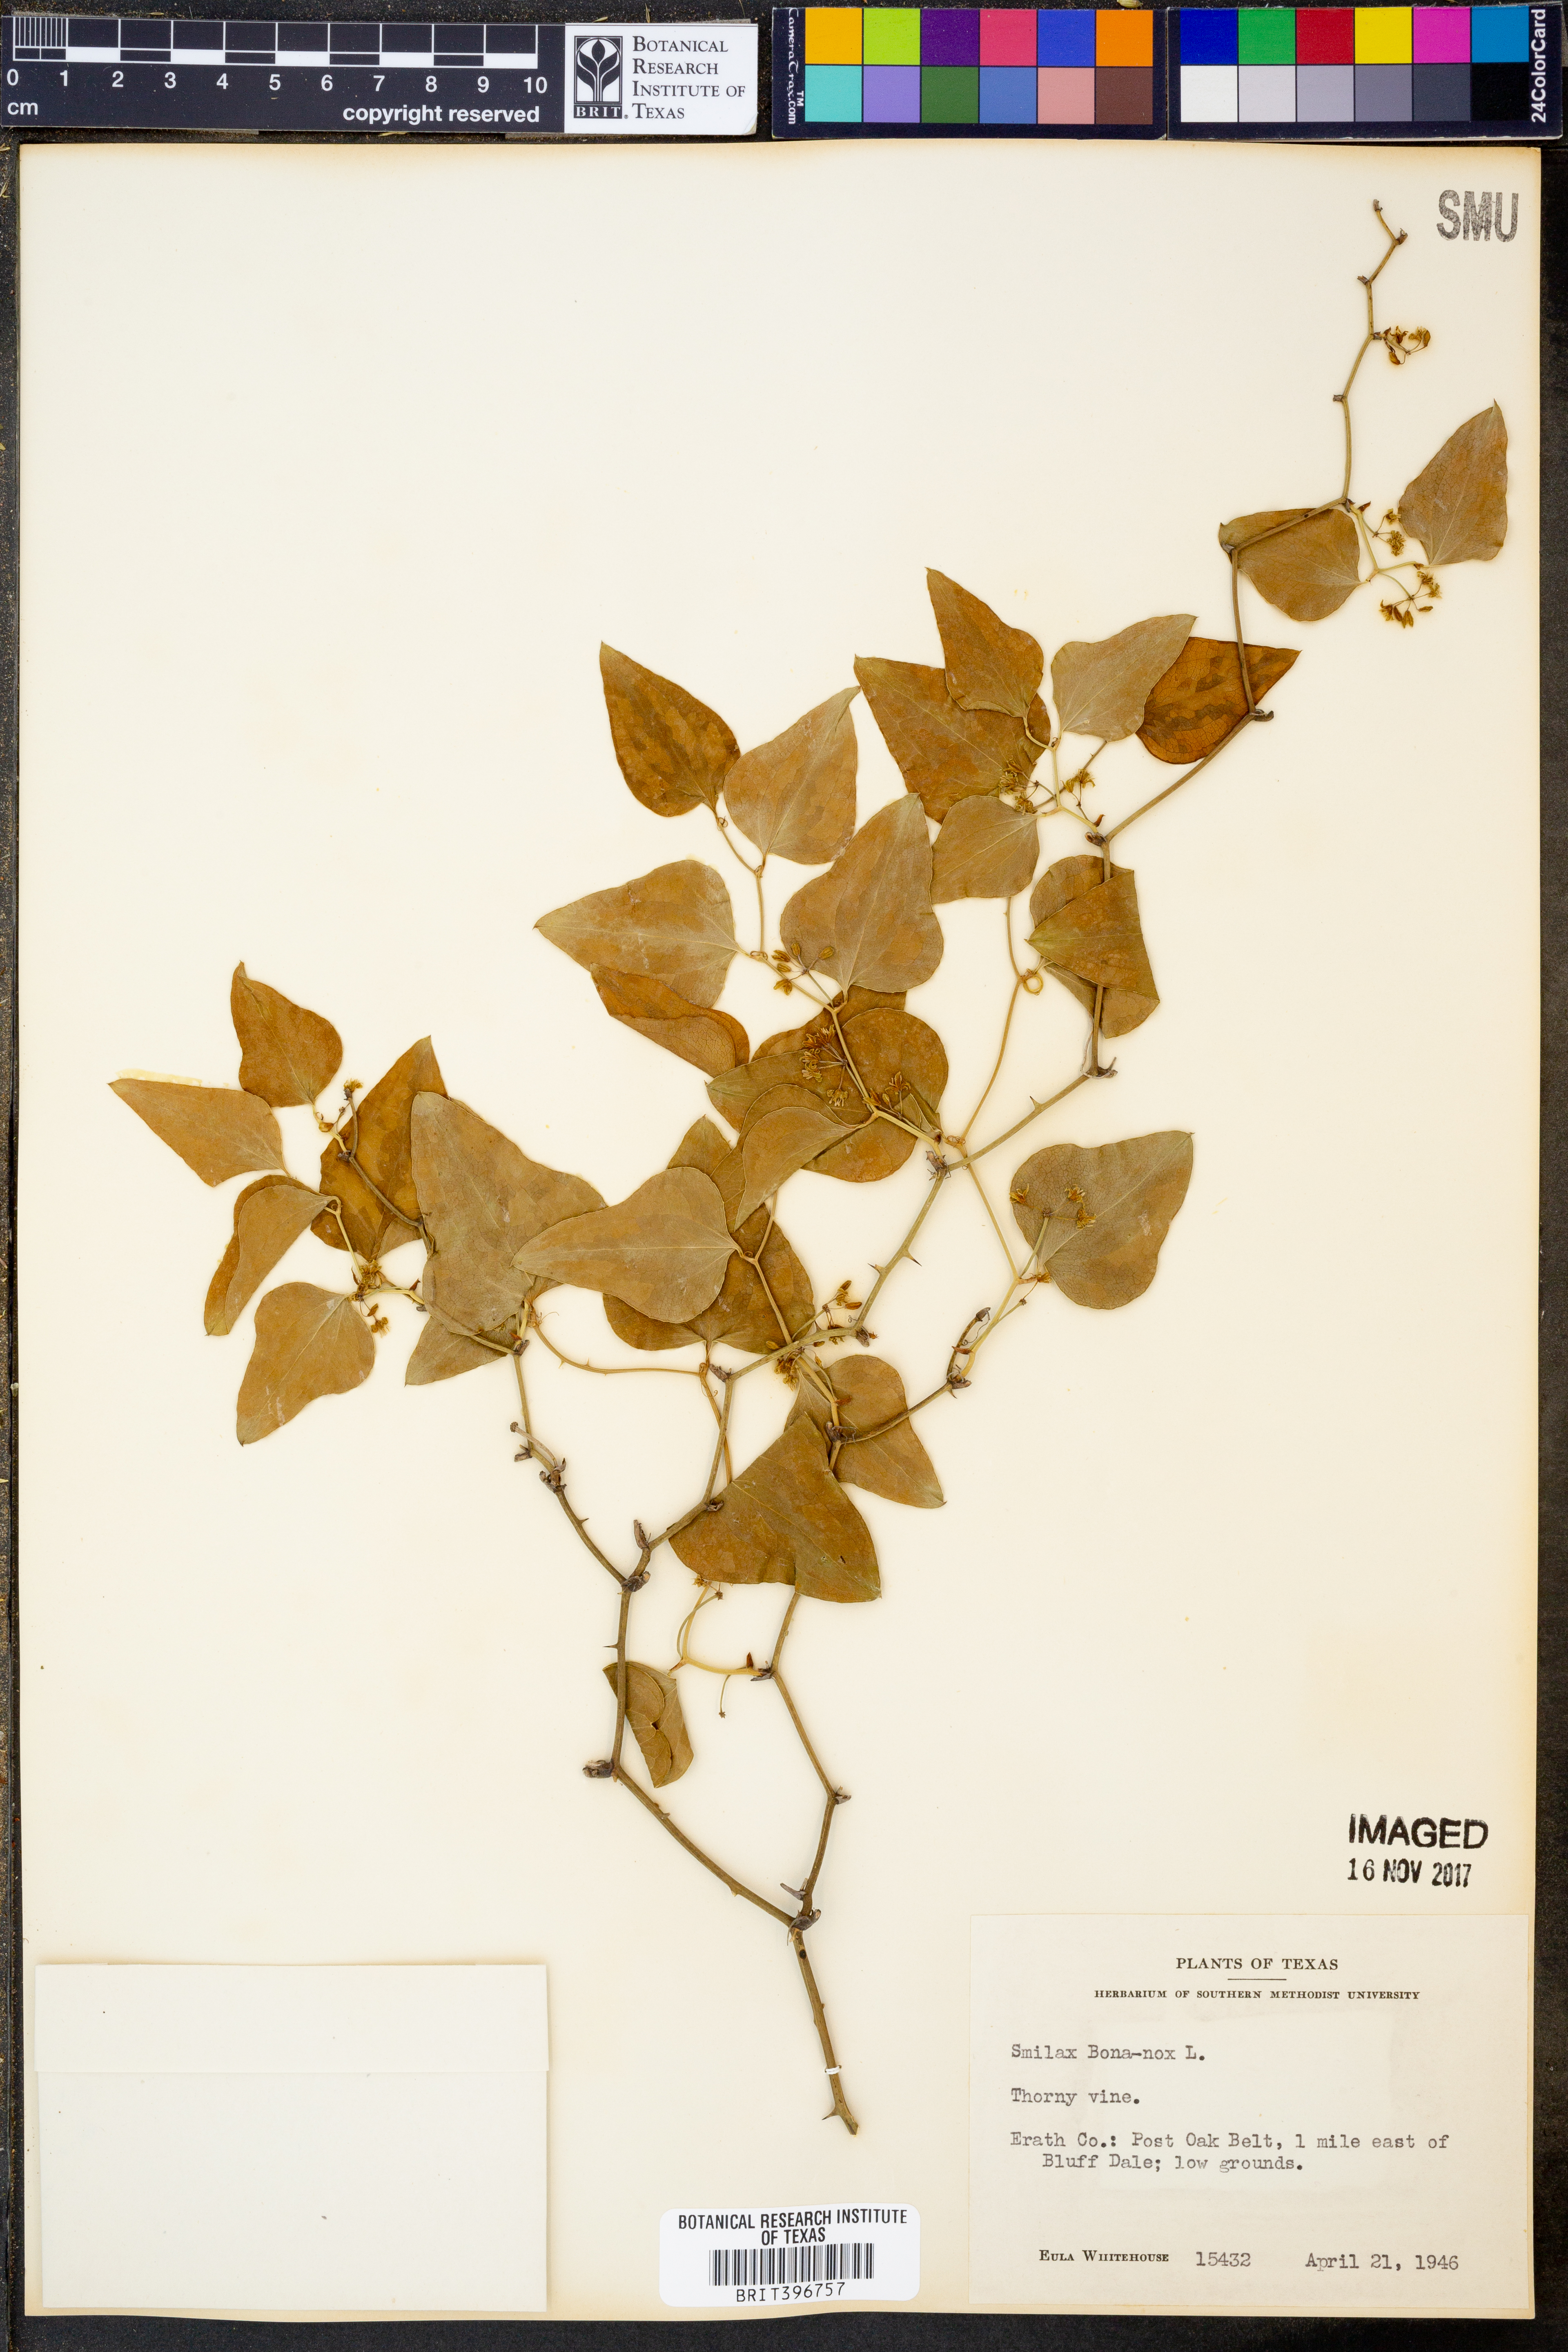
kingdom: Plantae
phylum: Tracheophyta
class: Liliopsida
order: Liliales
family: Smilacaceae
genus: Smilax
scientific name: Smilax bona-nox
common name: Catbrier
